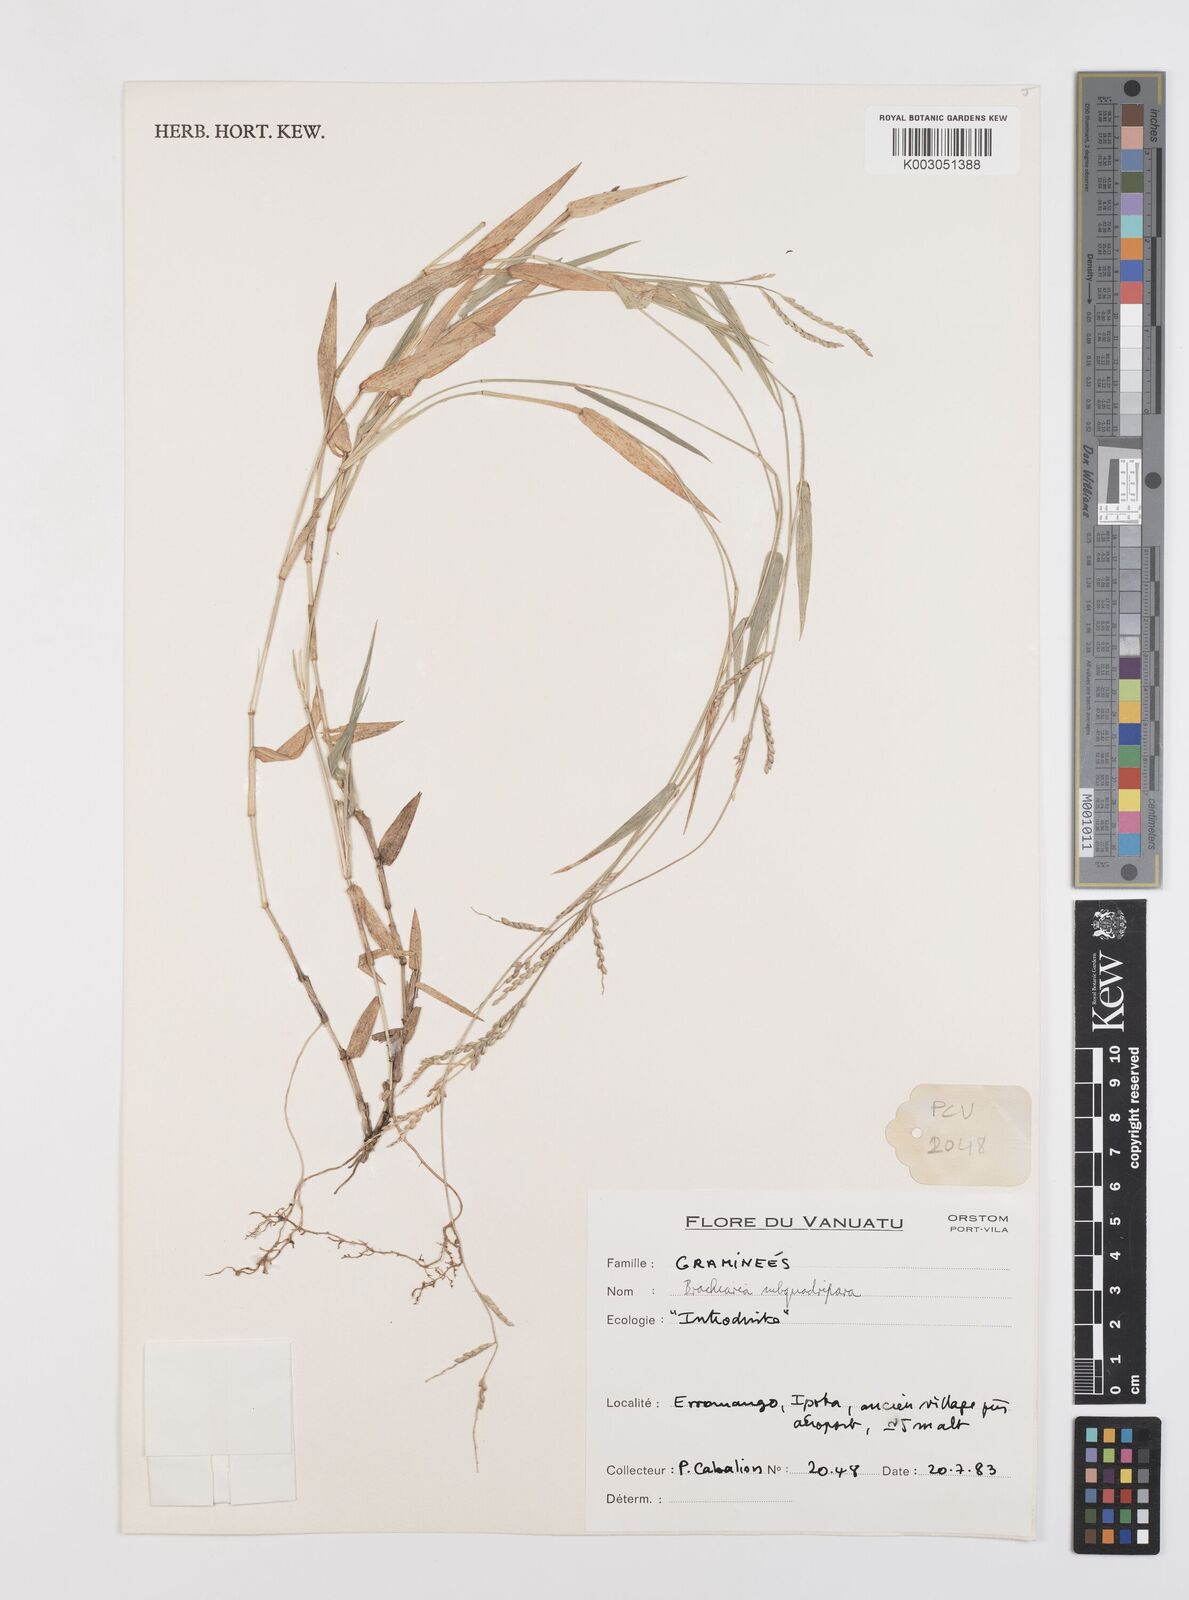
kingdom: Plantae
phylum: Tracheophyta
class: Liliopsida
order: Poales
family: Poaceae
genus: Urochloa
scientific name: Urochloa subquadripara
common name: Armgrass millet
